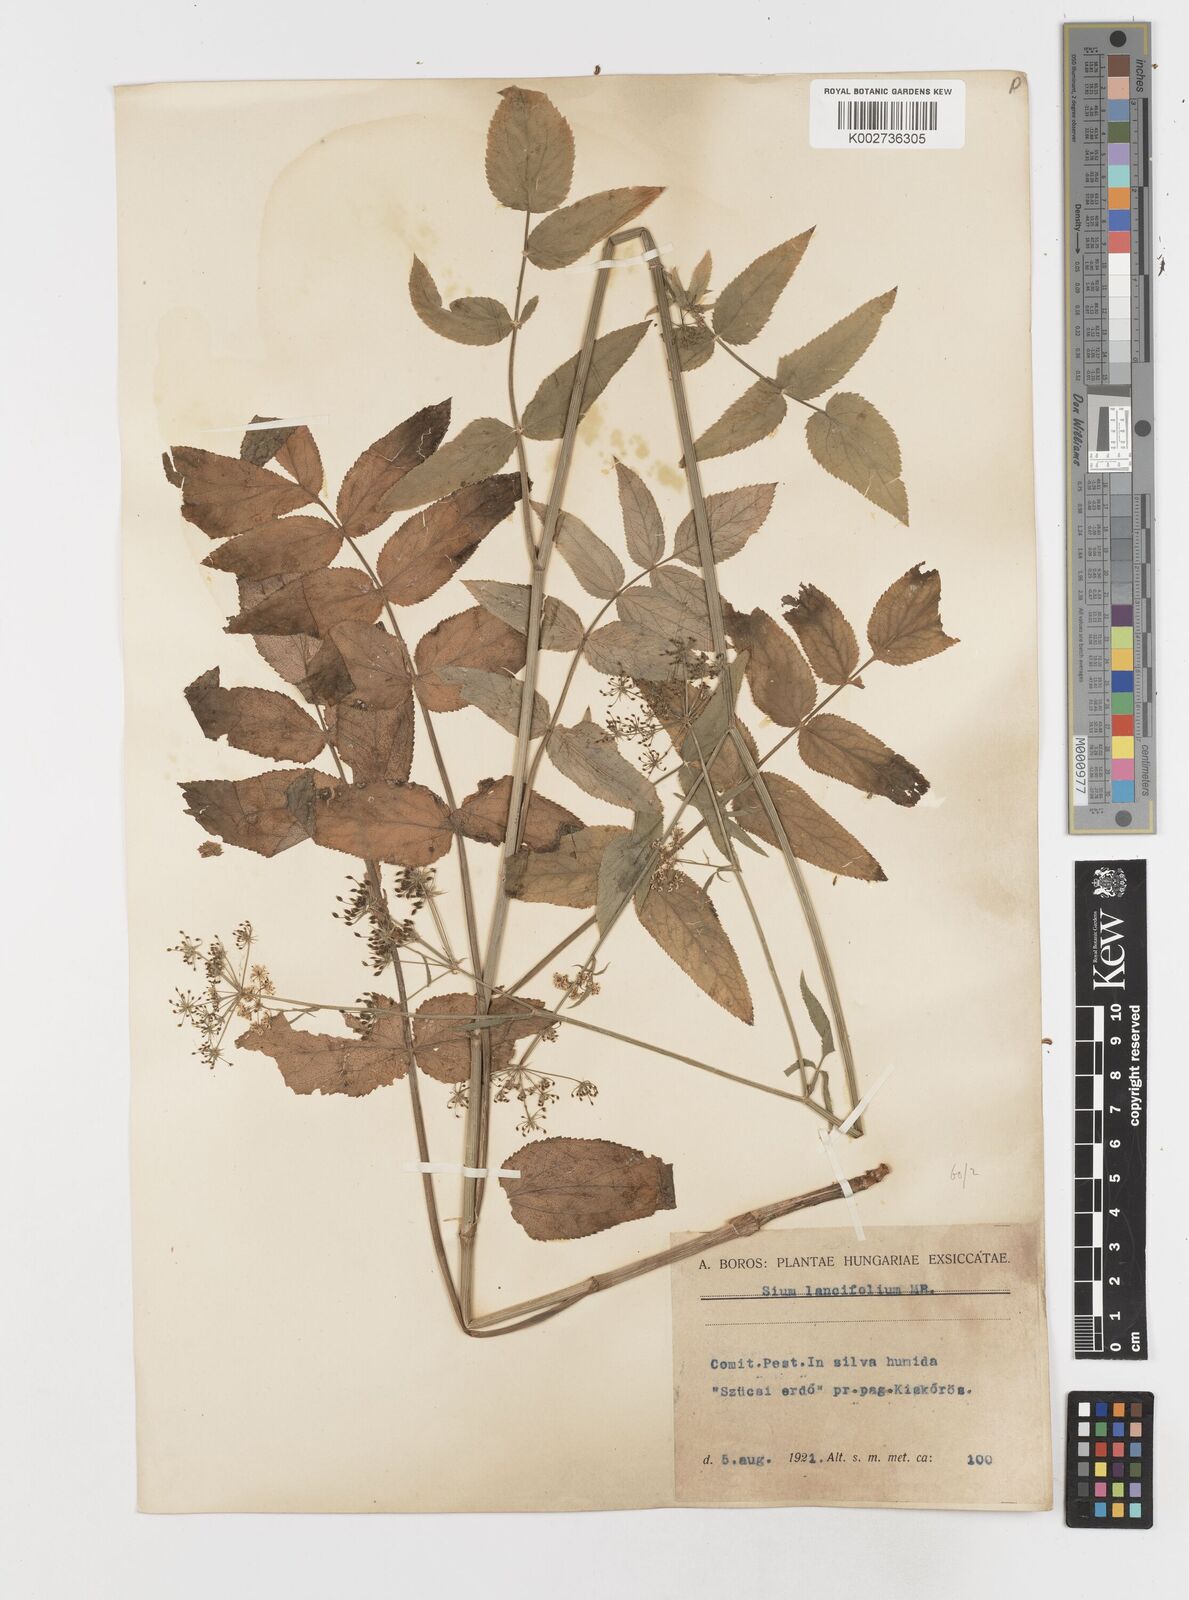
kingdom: Plantae
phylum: Tracheophyta
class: Magnoliopsida
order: Apiales
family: Apiaceae
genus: Sium
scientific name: Sium sisarum
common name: Skirret
